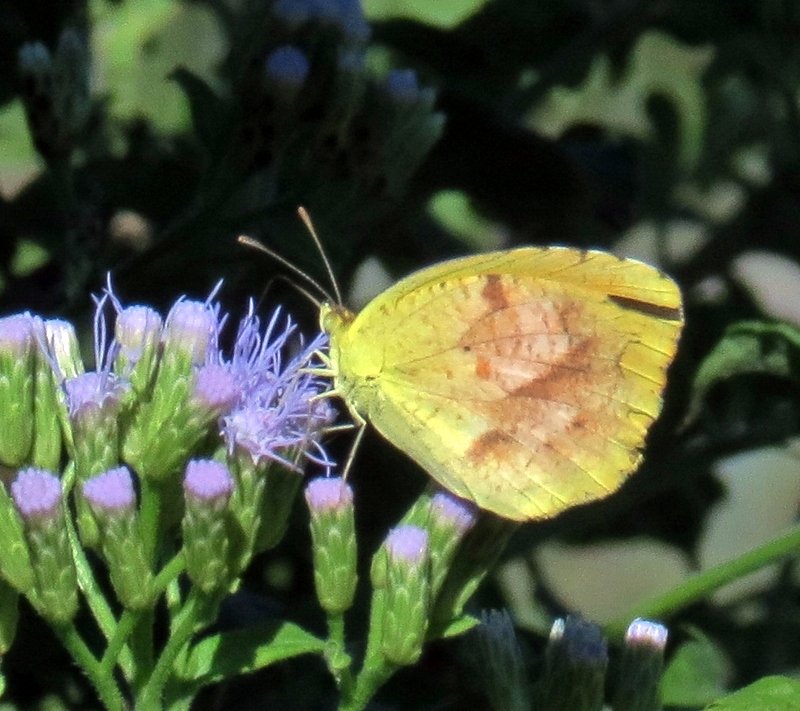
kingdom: Animalia
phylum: Arthropoda
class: Insecta
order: Lepidoptera
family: Pieridae
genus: Abaeis
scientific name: Abaeis nicippe
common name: Sleepy Orange
